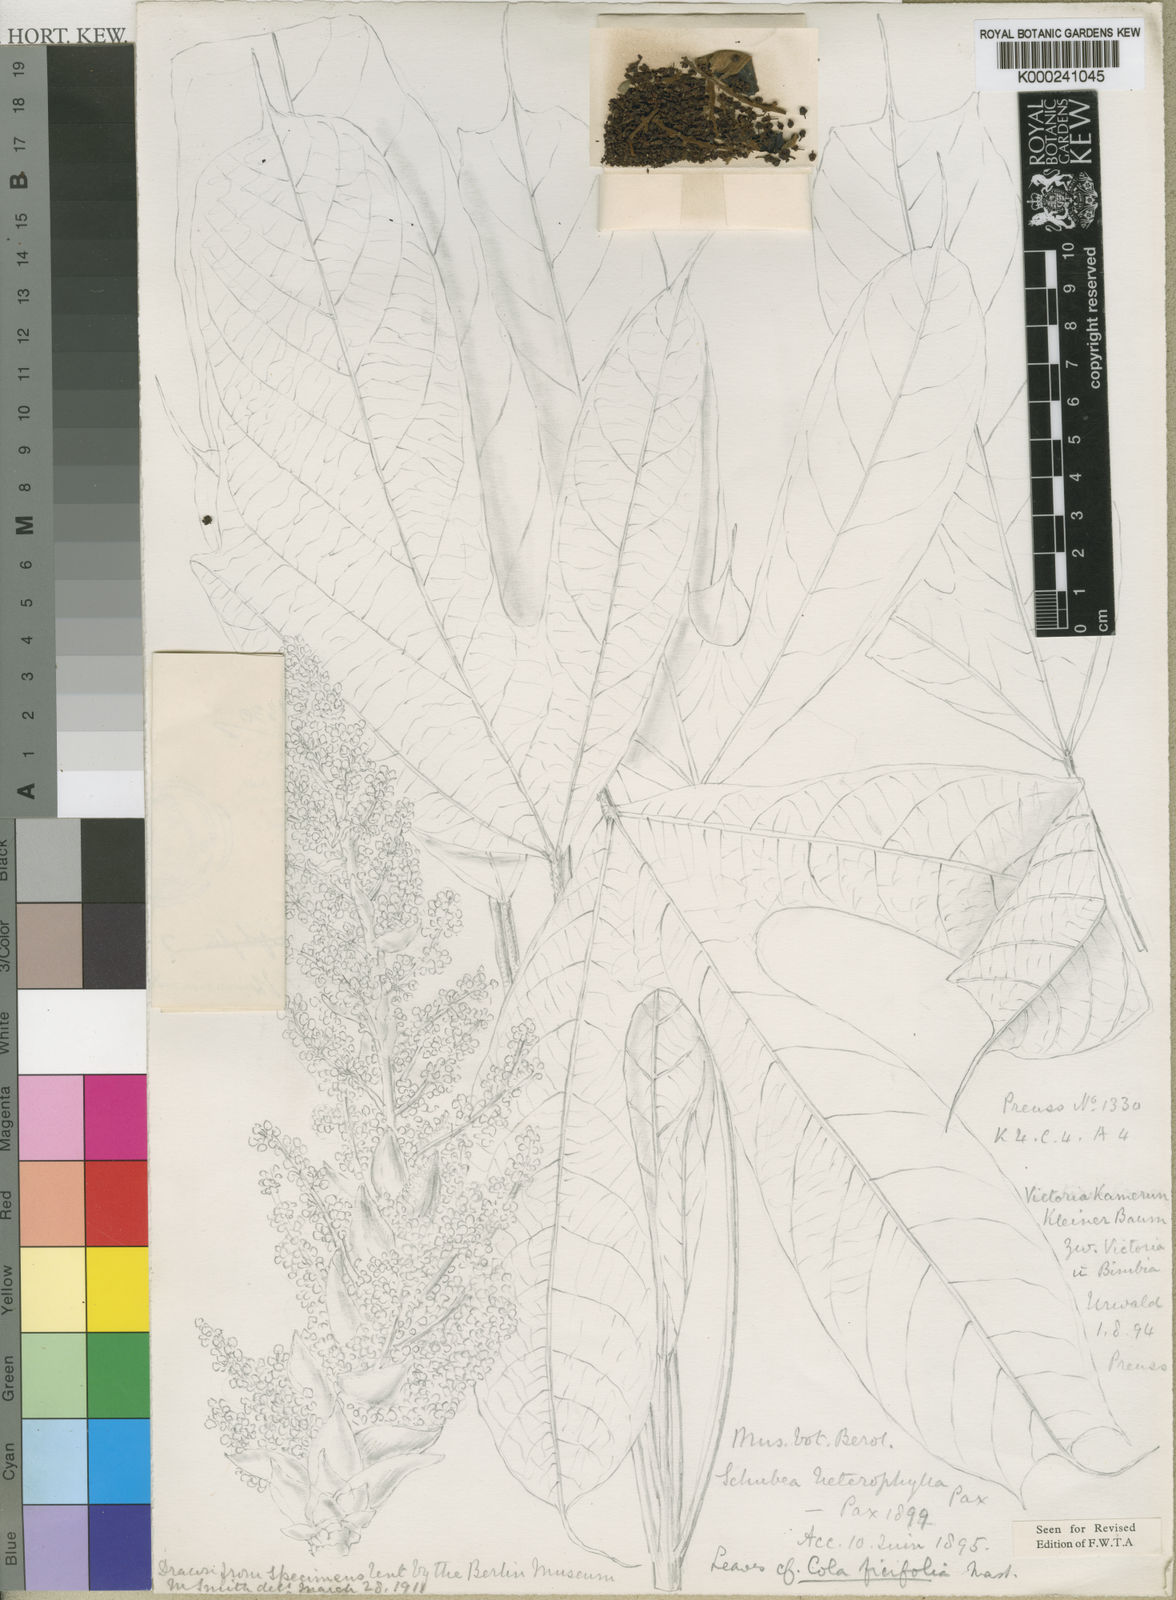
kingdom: Plantae
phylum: Tracheophyta
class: Magnoliopsida
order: Malvales
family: Malvaceae
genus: Cola
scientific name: Cola heterophylla
